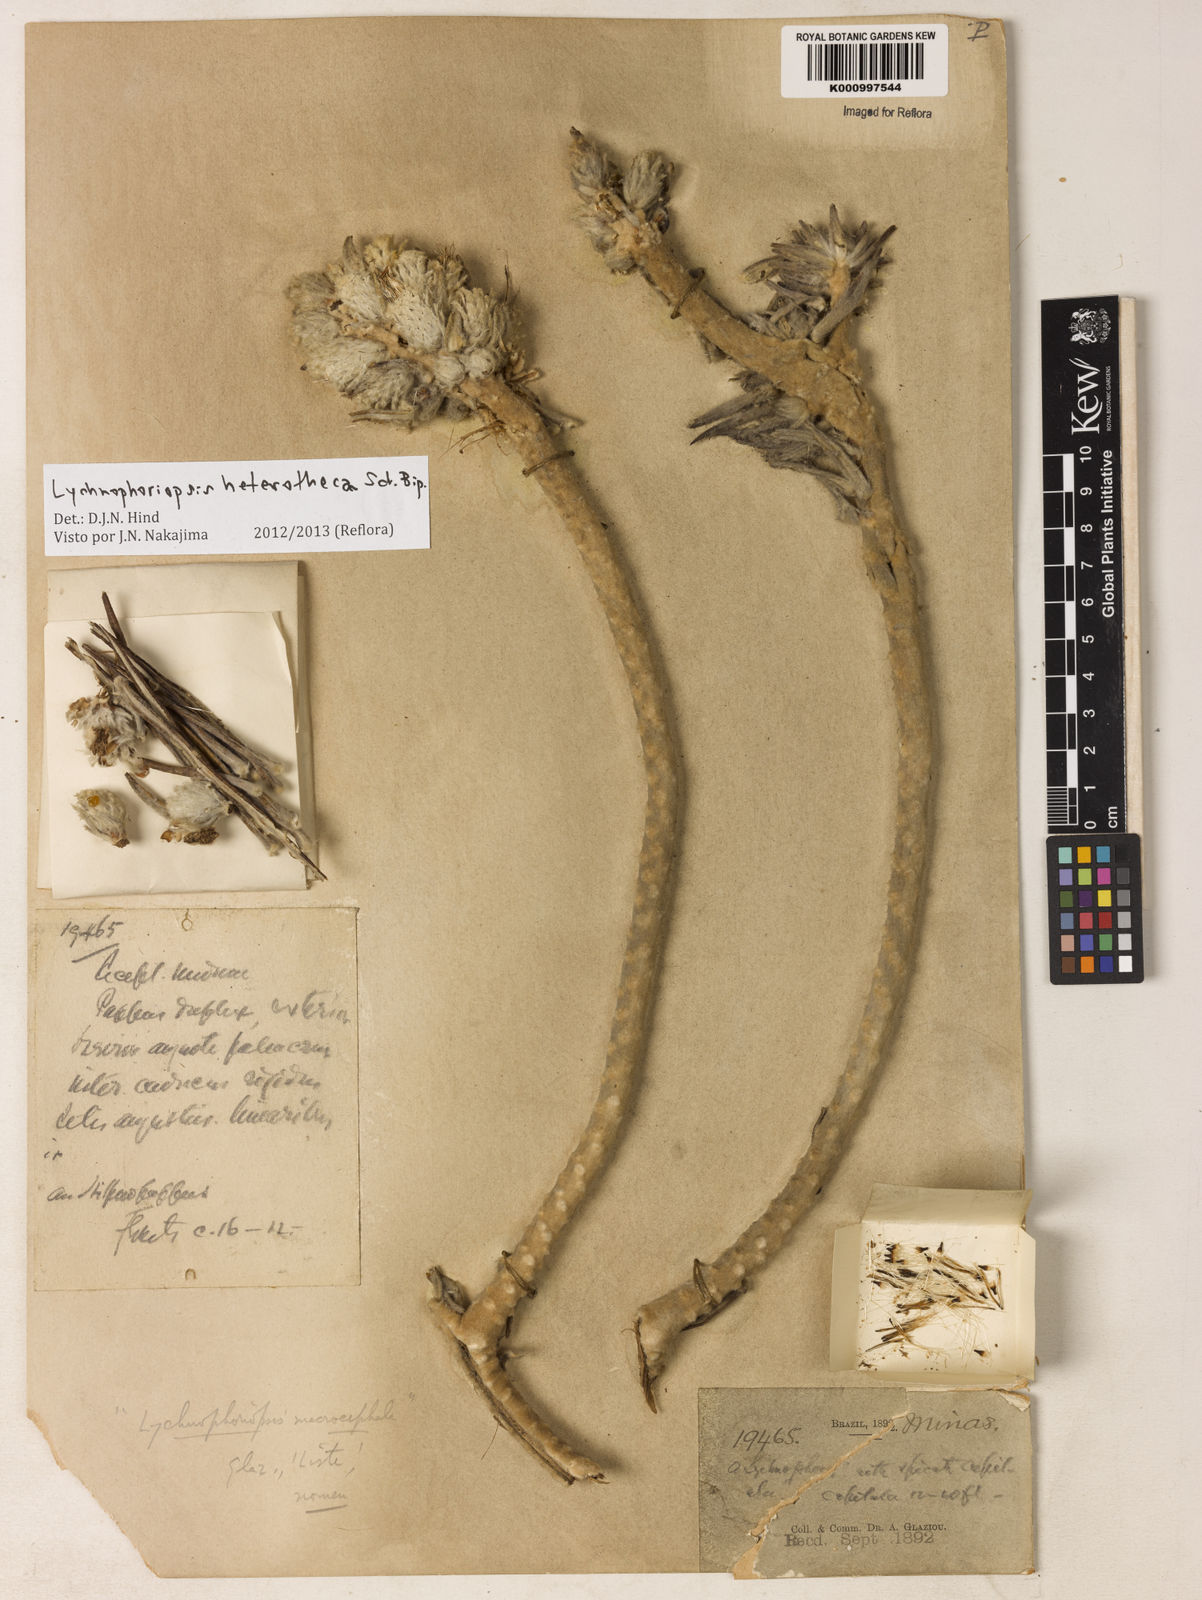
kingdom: Plantae
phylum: Tracheophyta
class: Magnoliopsida
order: Asterales
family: Asteraceae
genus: Lychnophora
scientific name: Lychnophora candelabrum
